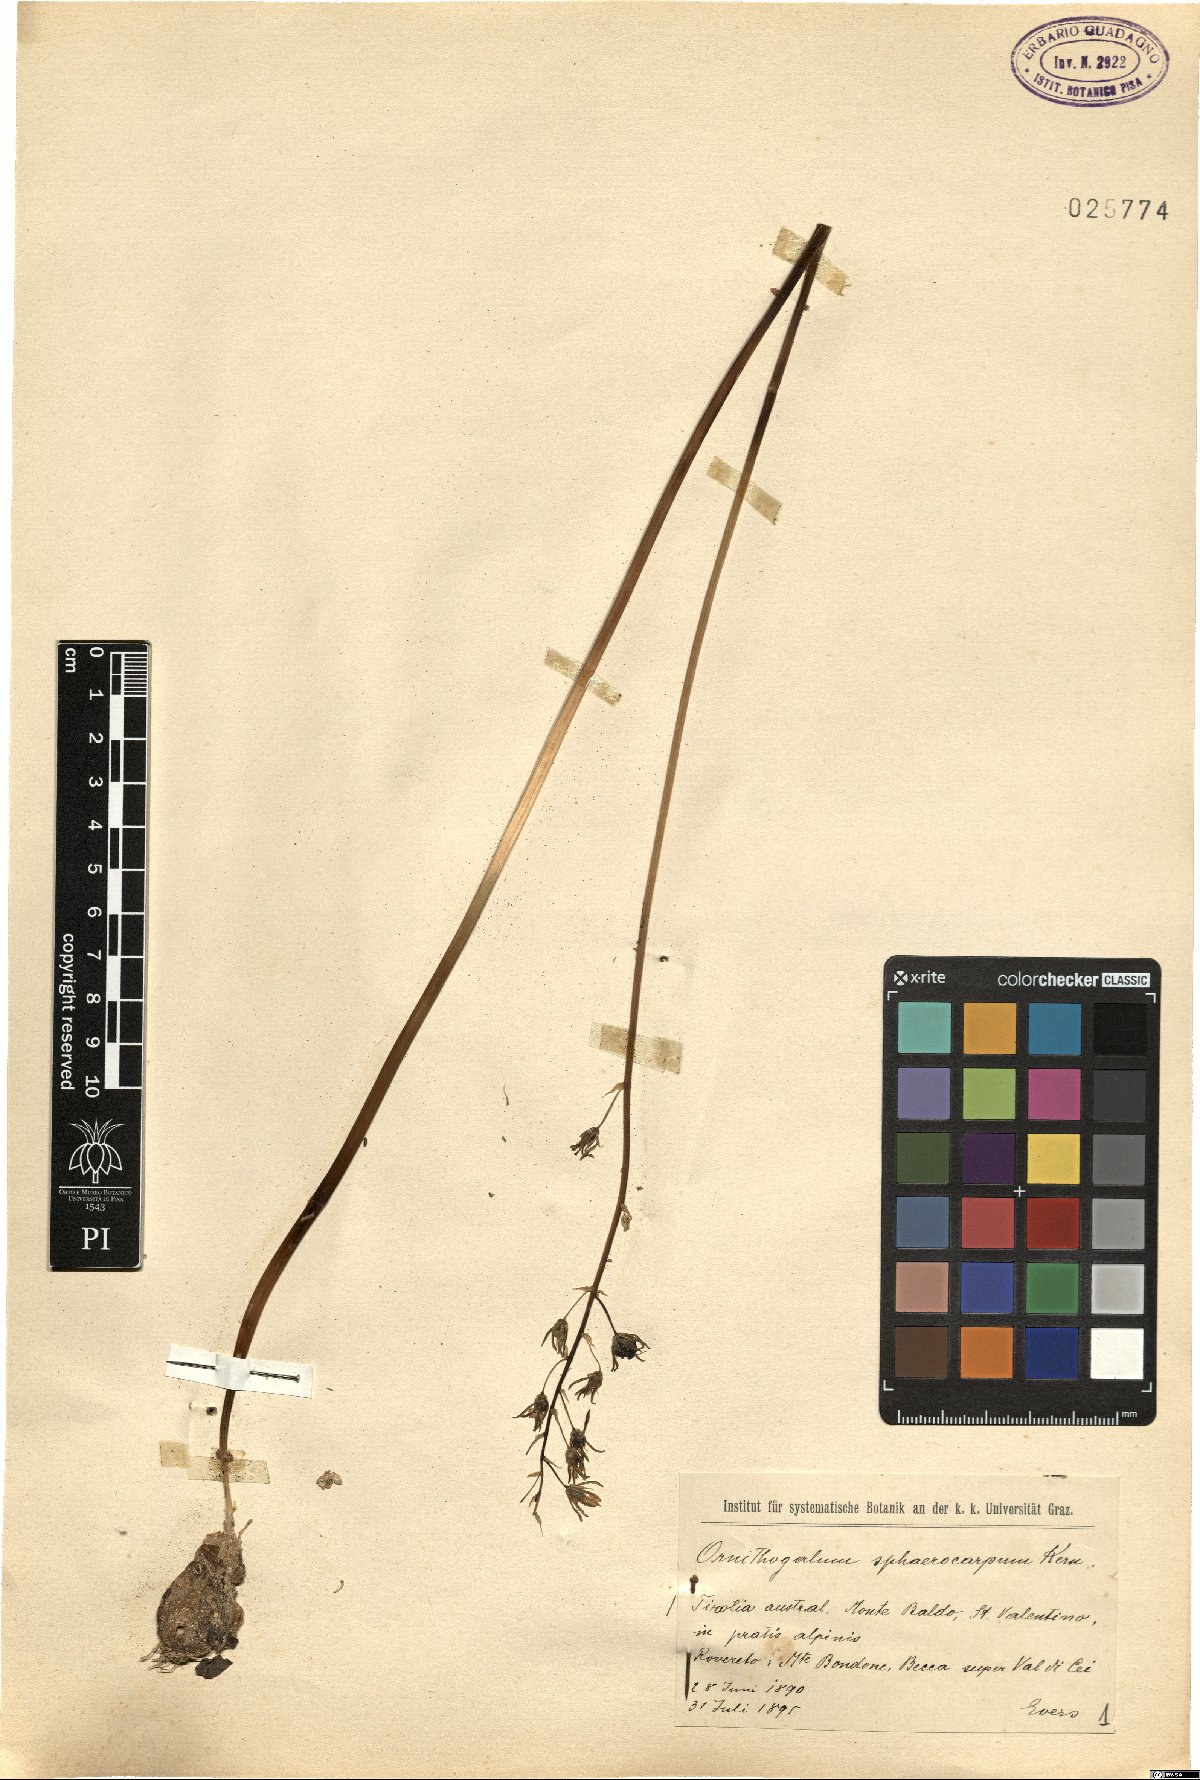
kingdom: Plantae
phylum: Tracheophyta
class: Liliopsida
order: Asparagales
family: Asparagaceae
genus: Ornithogalum
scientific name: Ornithogalum sphaerocarpum
